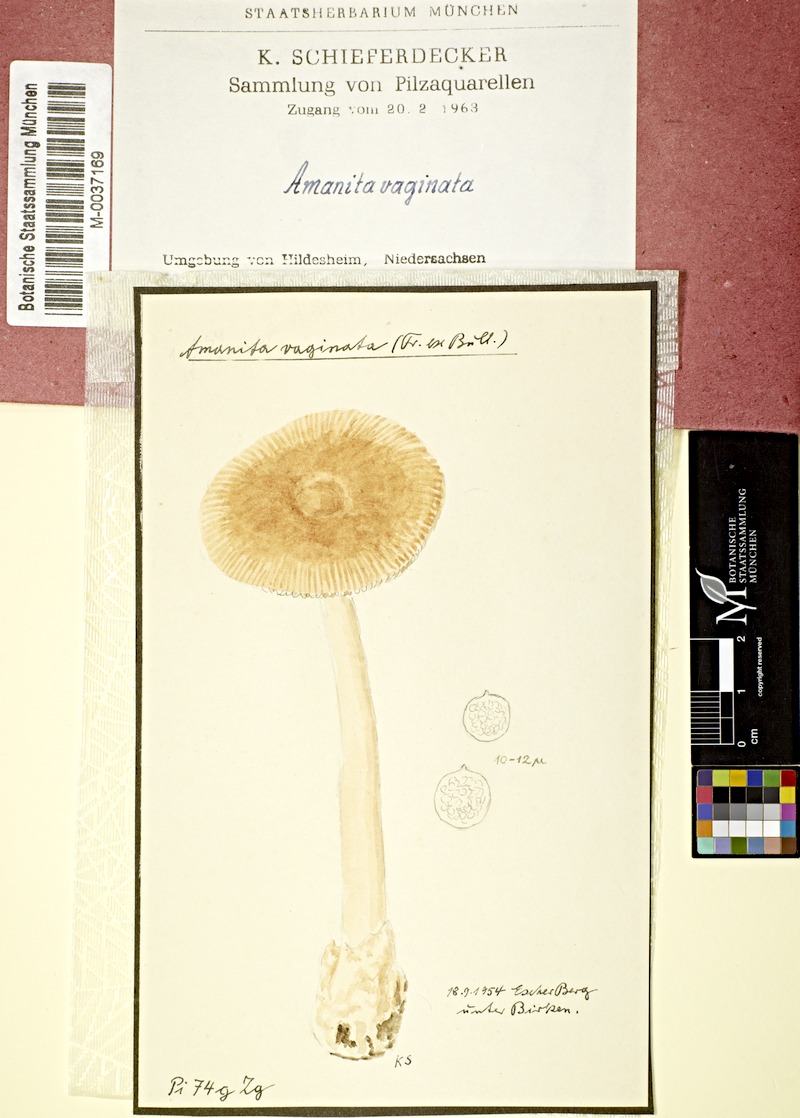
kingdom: Plantae
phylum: Tracheophyta
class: Magnoliopsida
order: Fagales
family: Betulaceae
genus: Betula
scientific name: Betula
